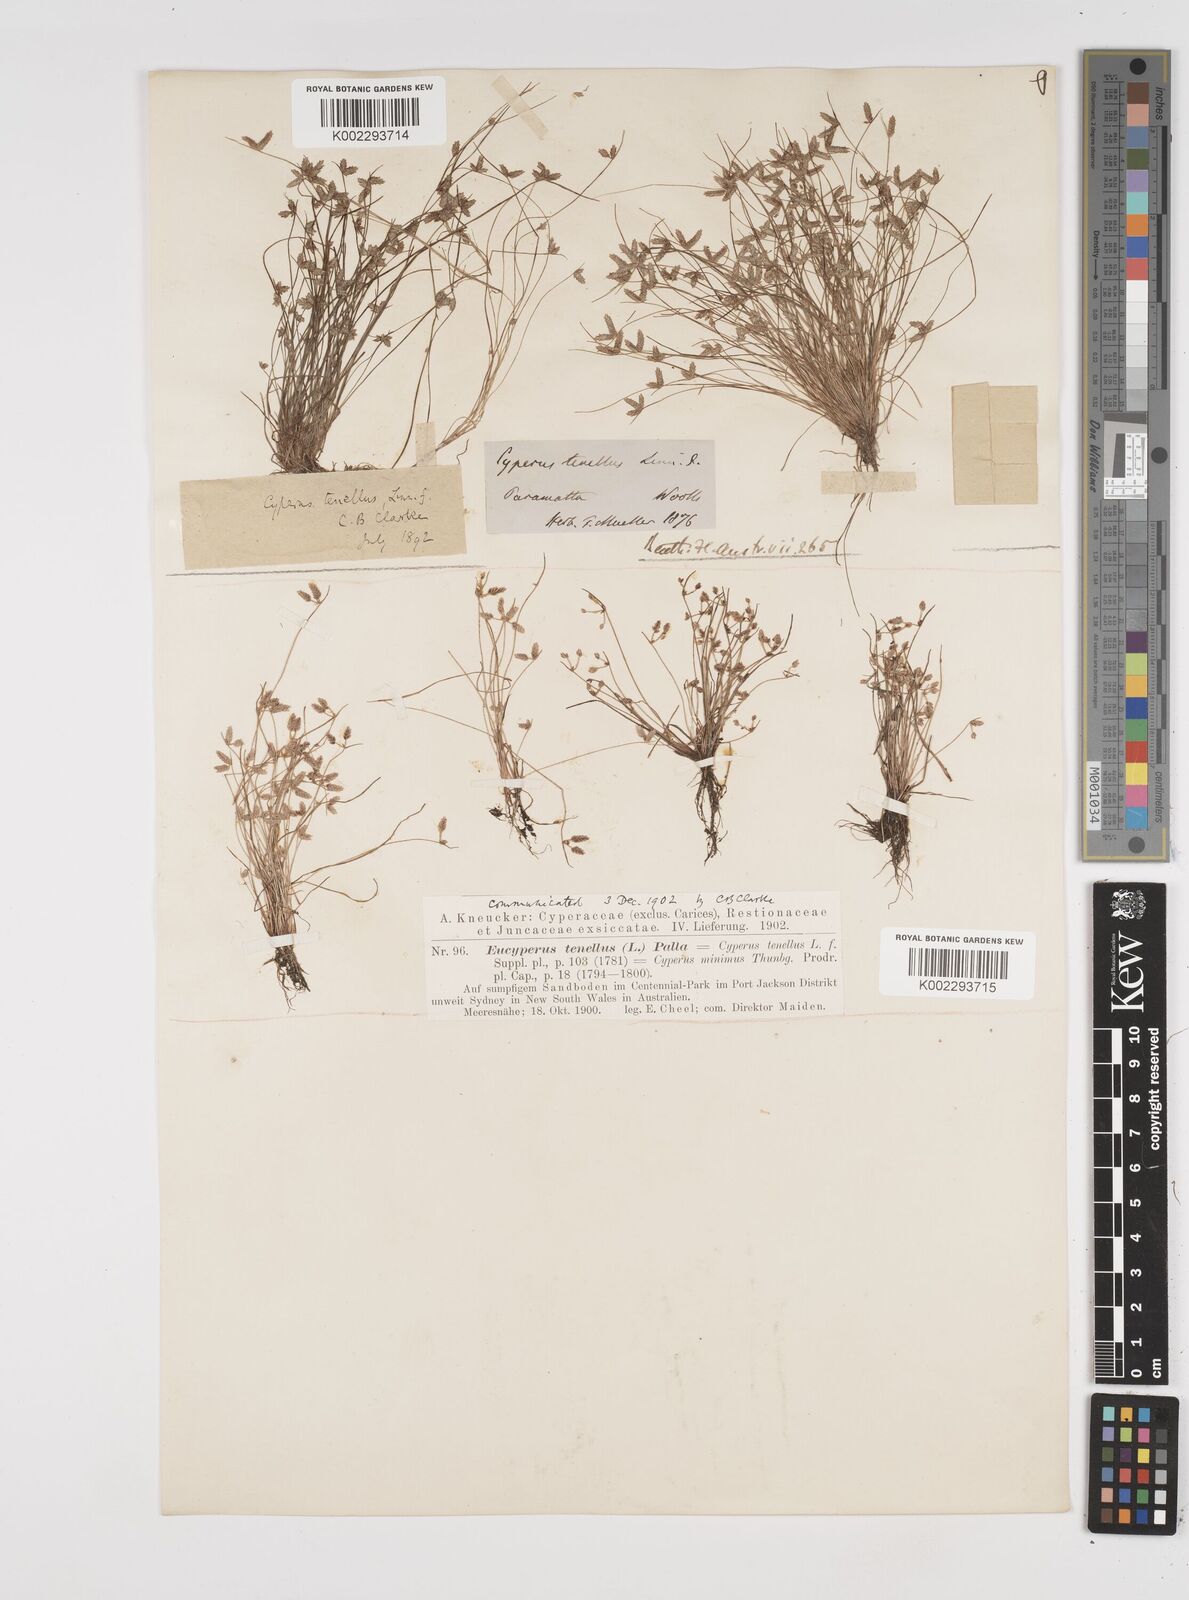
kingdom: Plantae
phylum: Tracheophyta
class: Liliopsida
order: Poales
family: Cyperaceae
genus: Isolepis
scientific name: Isolepis levynsiana
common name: Sedge
